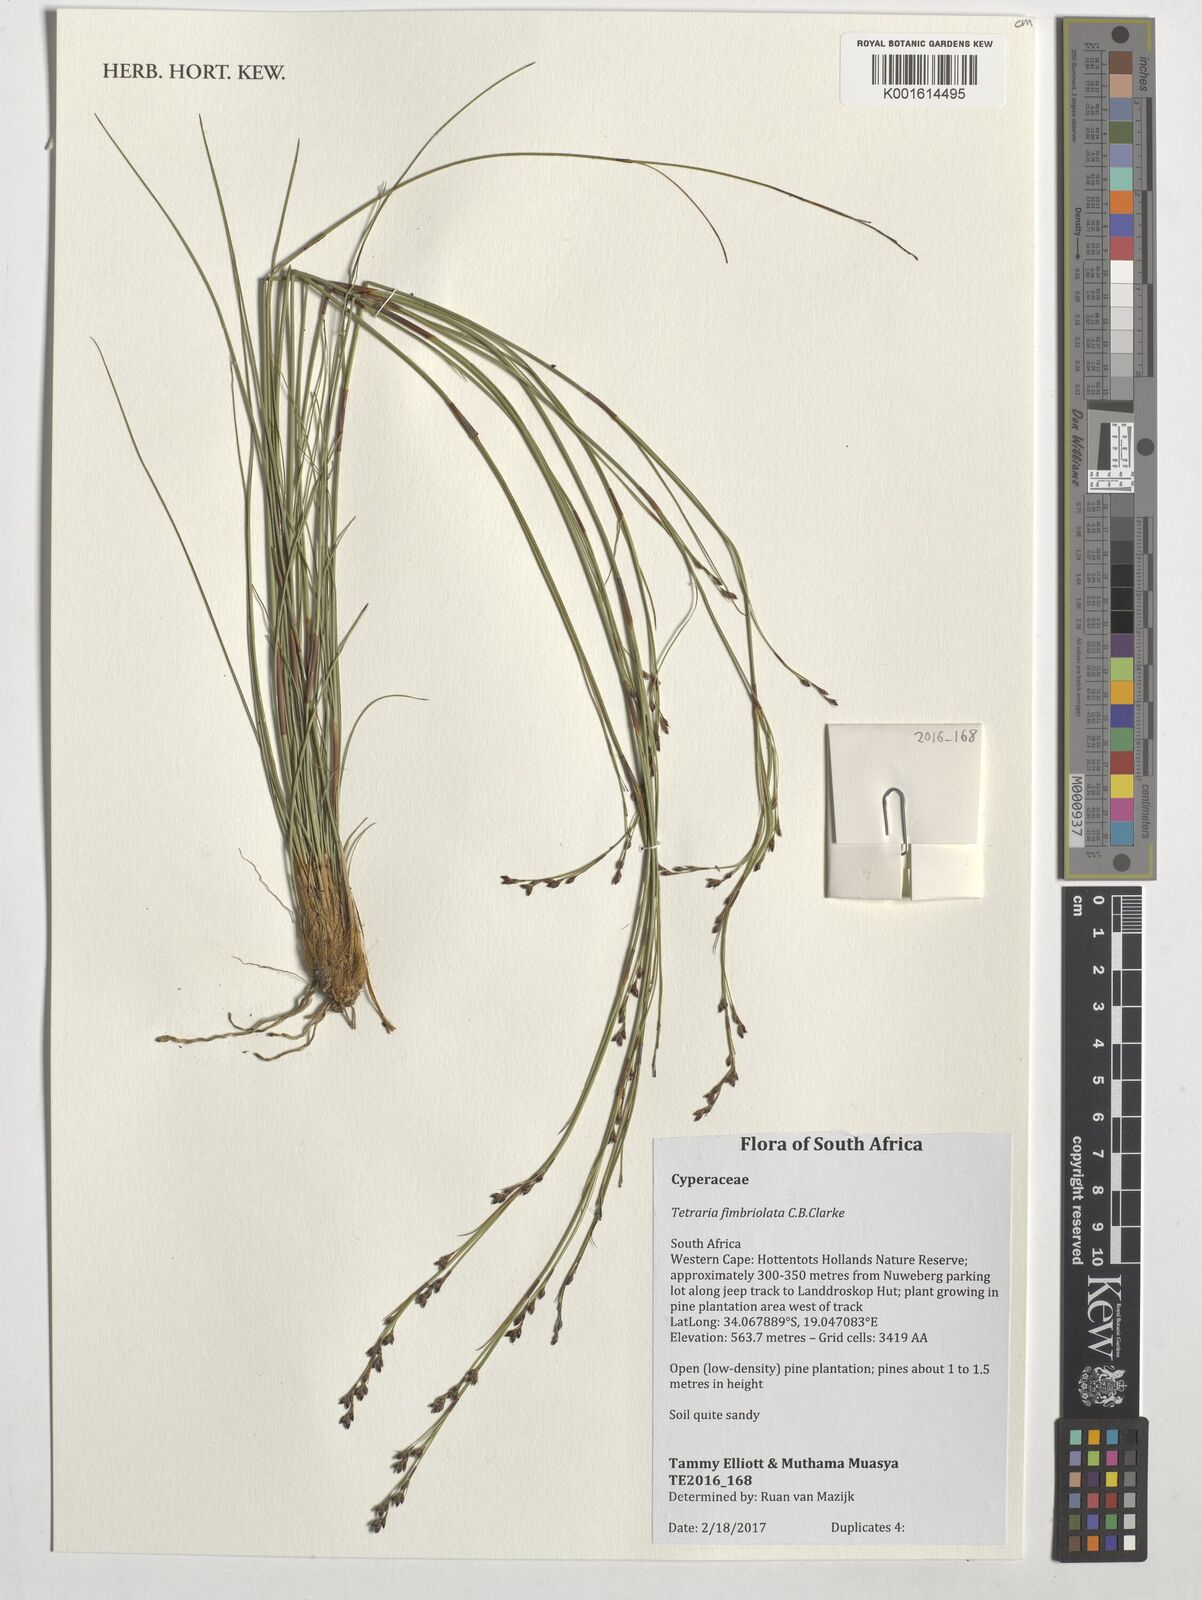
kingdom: Plantae
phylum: Tracheophyta
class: Liliopsida
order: Poales
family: Cyperaceae
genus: Tetraria
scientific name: Tetraria fimbriolata
